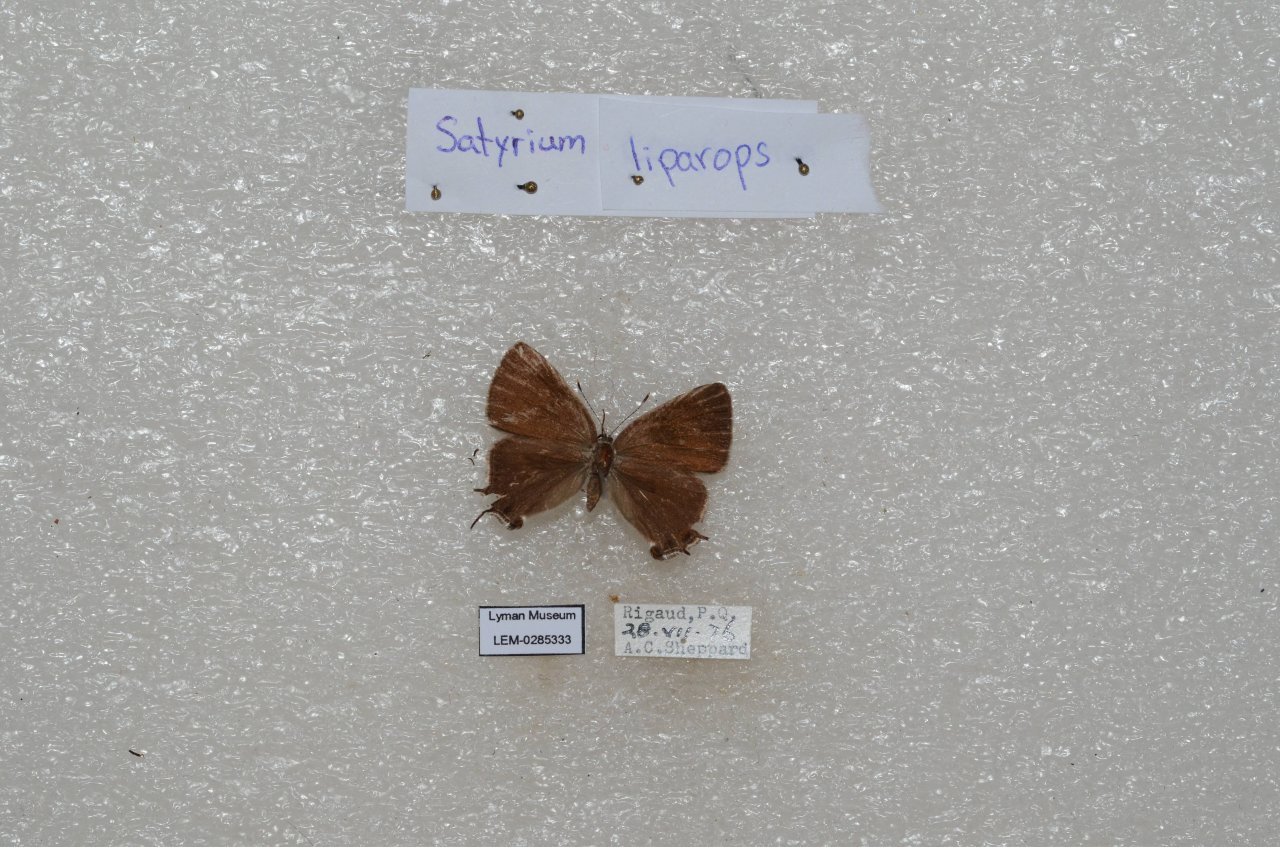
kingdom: Animalia
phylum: Arthropoda
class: Insecta
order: Lepidoptera
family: Lycaenidae
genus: Satyrium
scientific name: Satyrium liparops
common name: Striped Hairstreak
